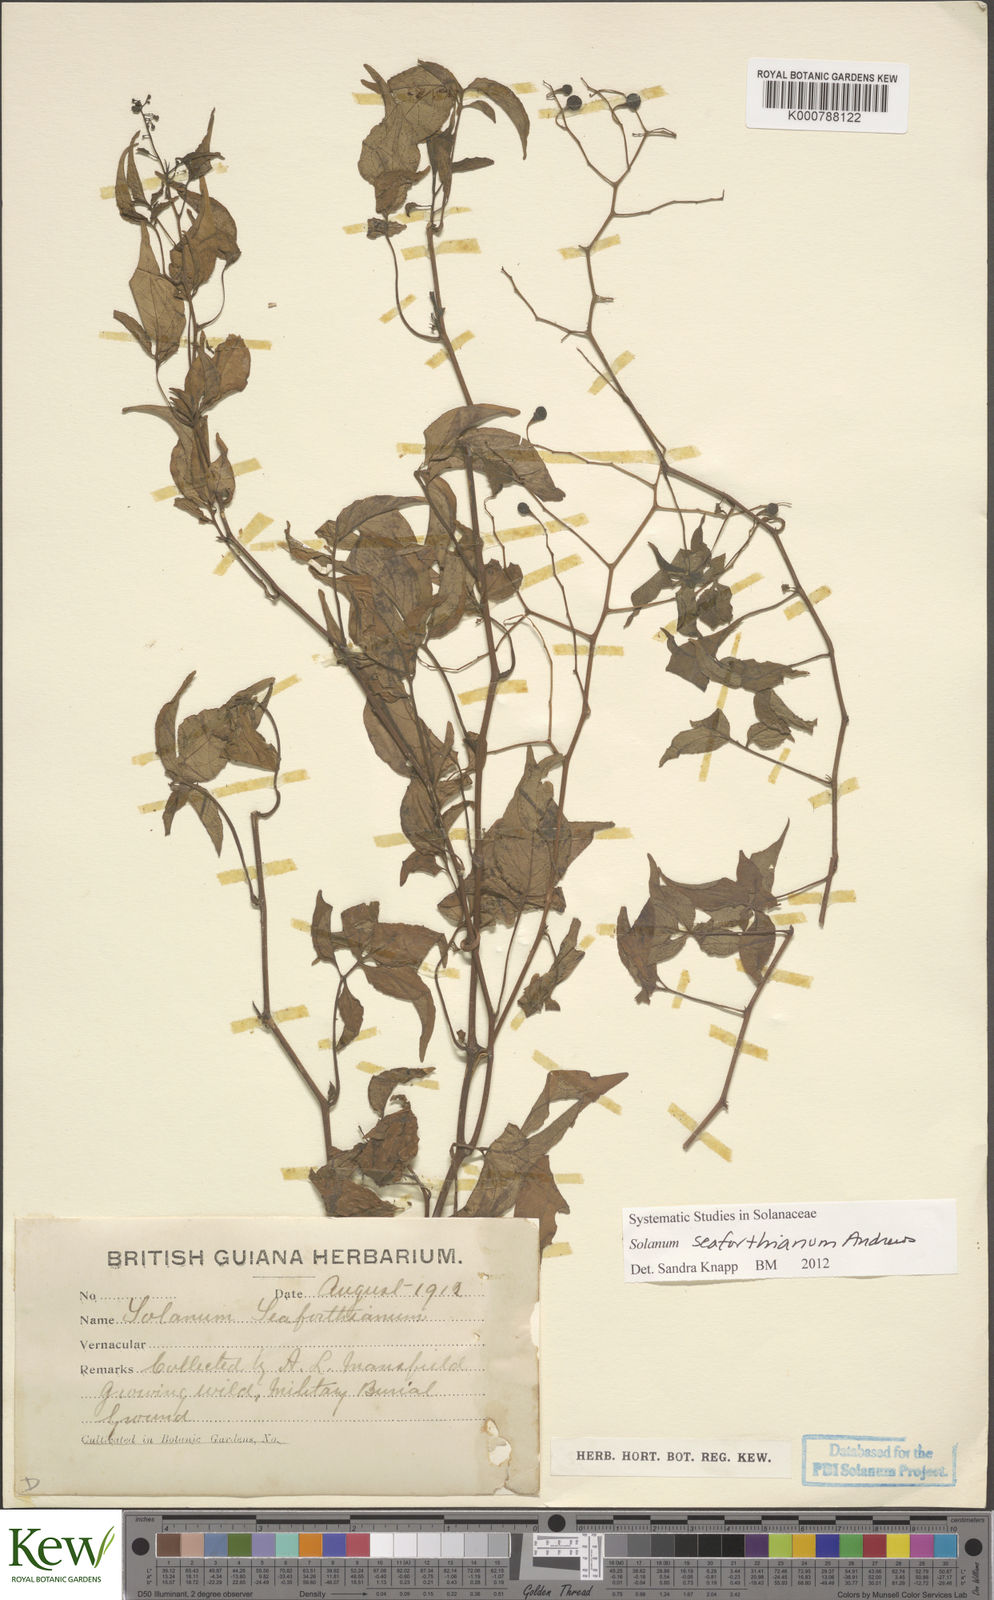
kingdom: Plantae
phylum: Tracheophyta
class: Magnoliopsida
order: Solanales
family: Solanaceae
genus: Solanum
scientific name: Solanum seaforthianum
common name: Brazilian nightshade
